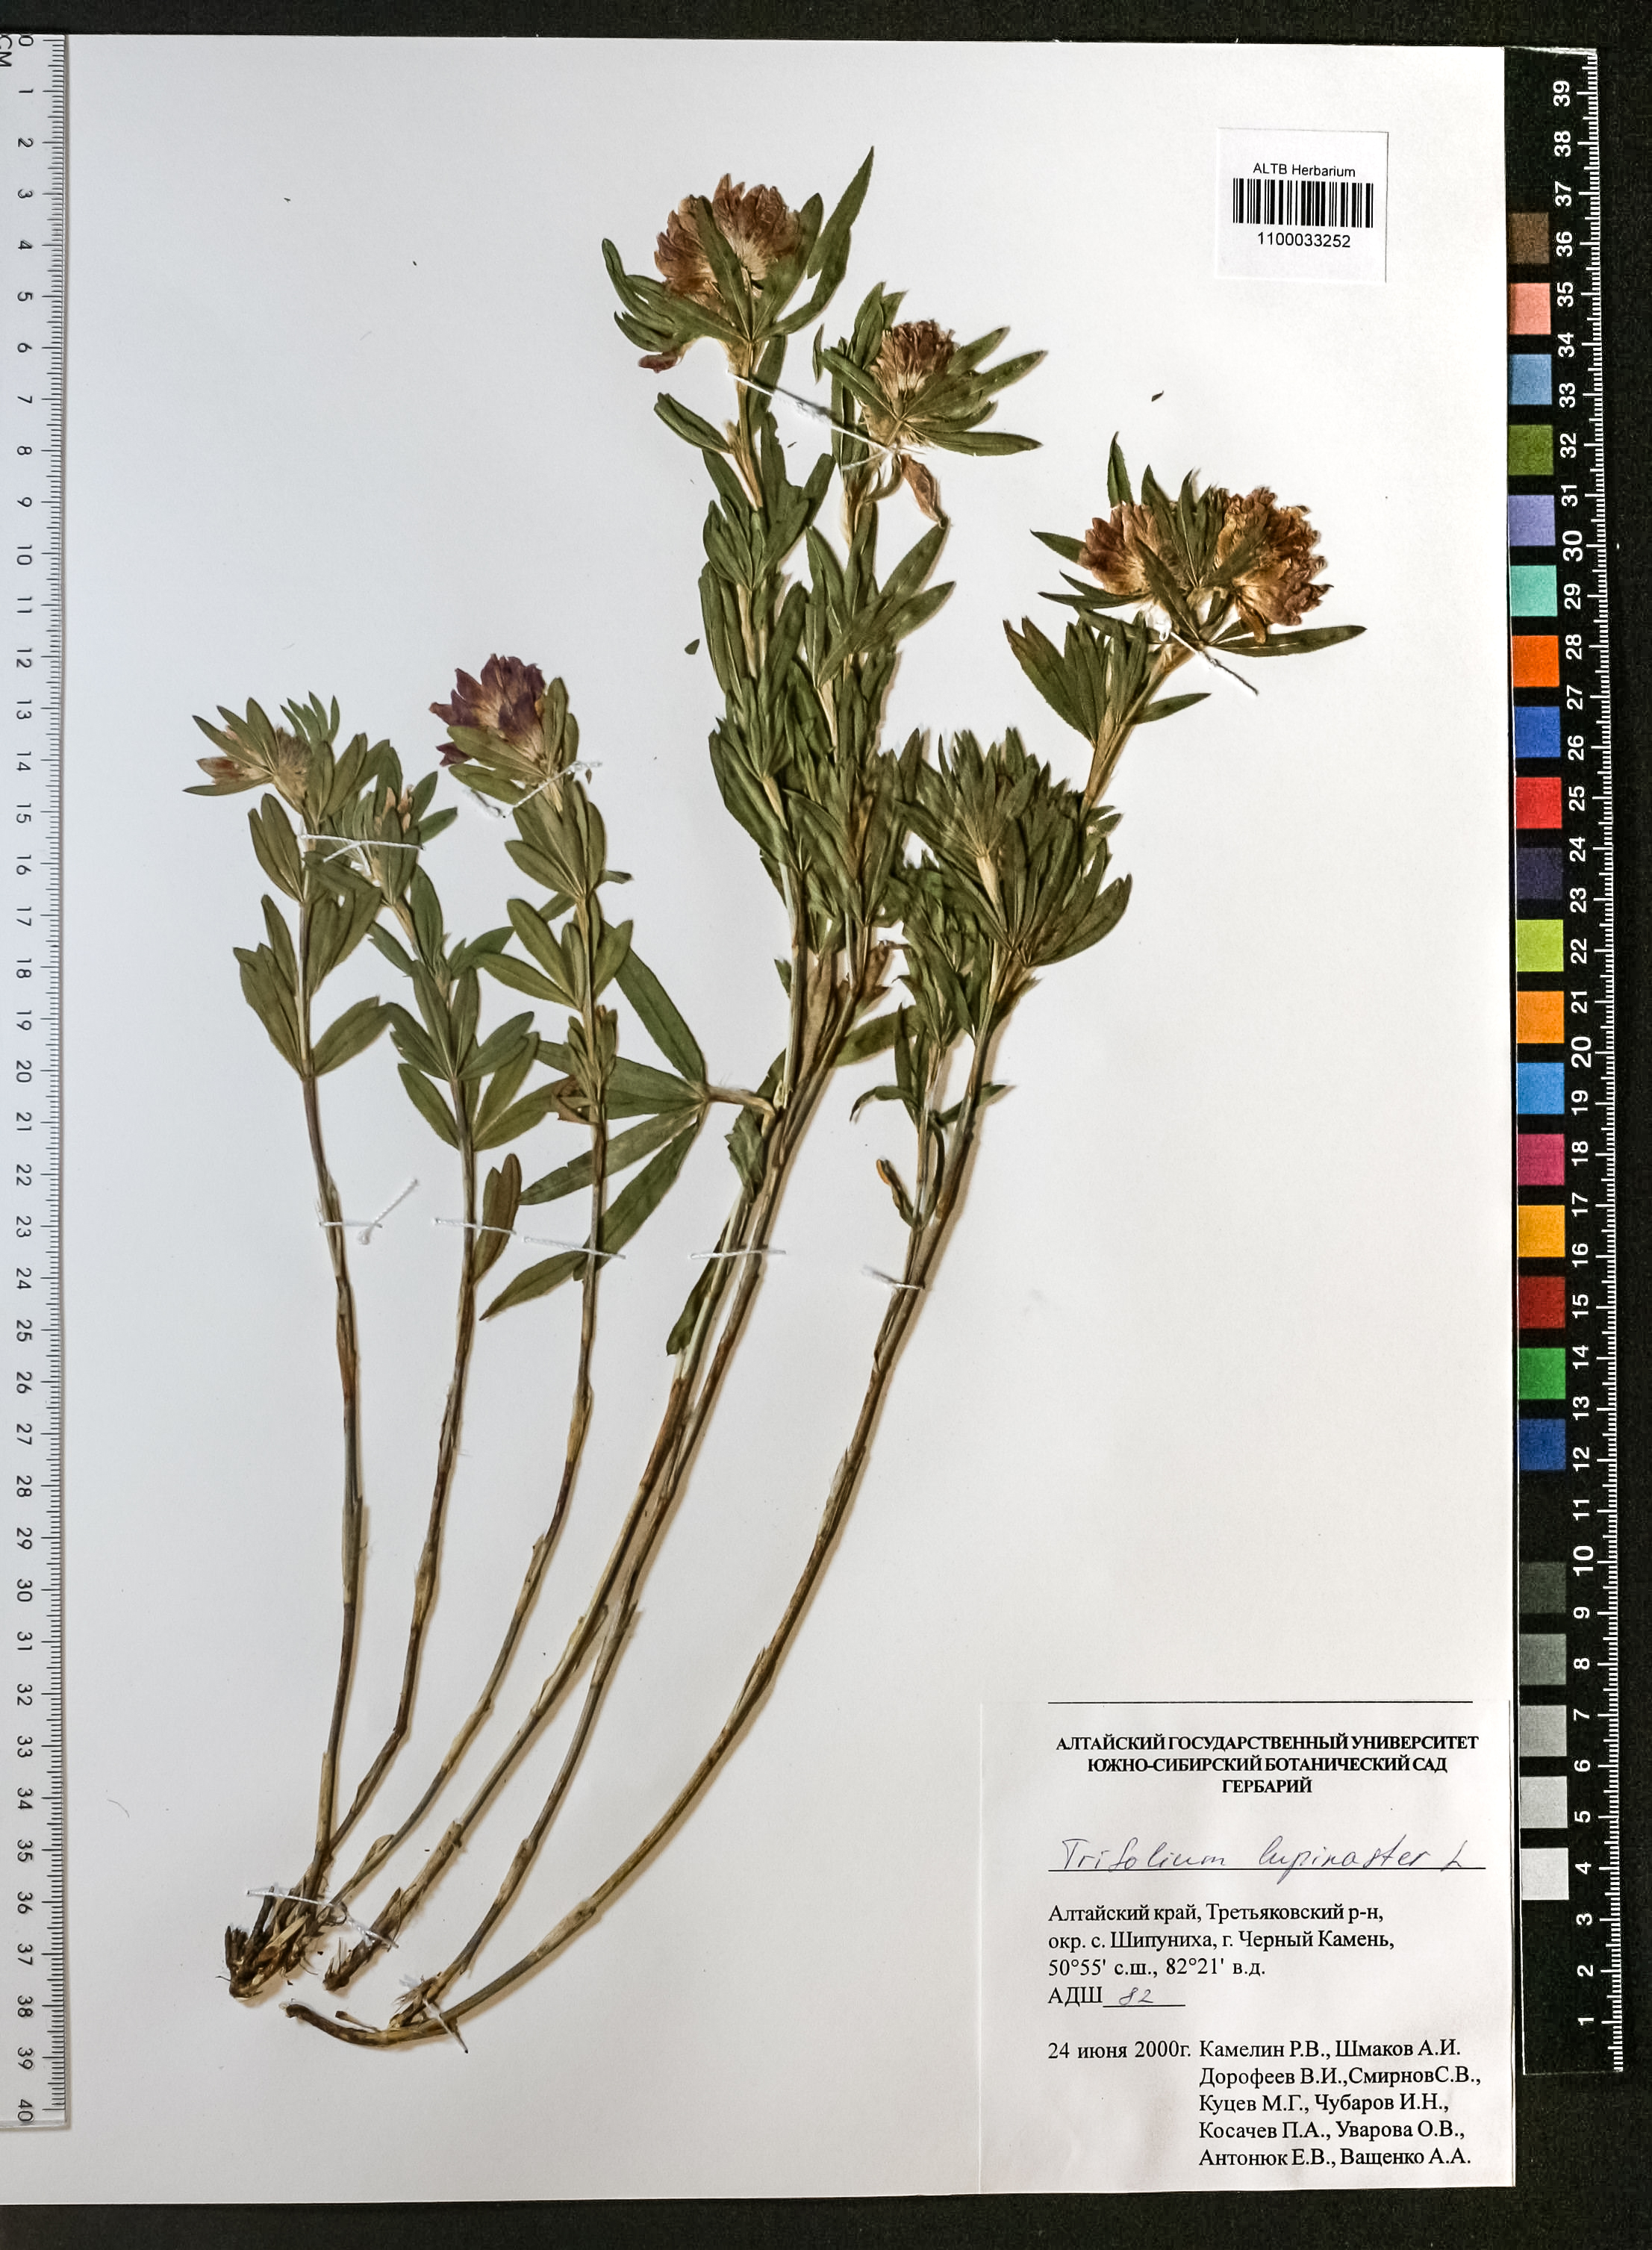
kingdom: Plantae
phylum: Tracheophyta
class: Magnoliopsida
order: Fabales
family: Fabaceae
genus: Trifolium
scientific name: Trifolium lupinaster
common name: Lupine clover
